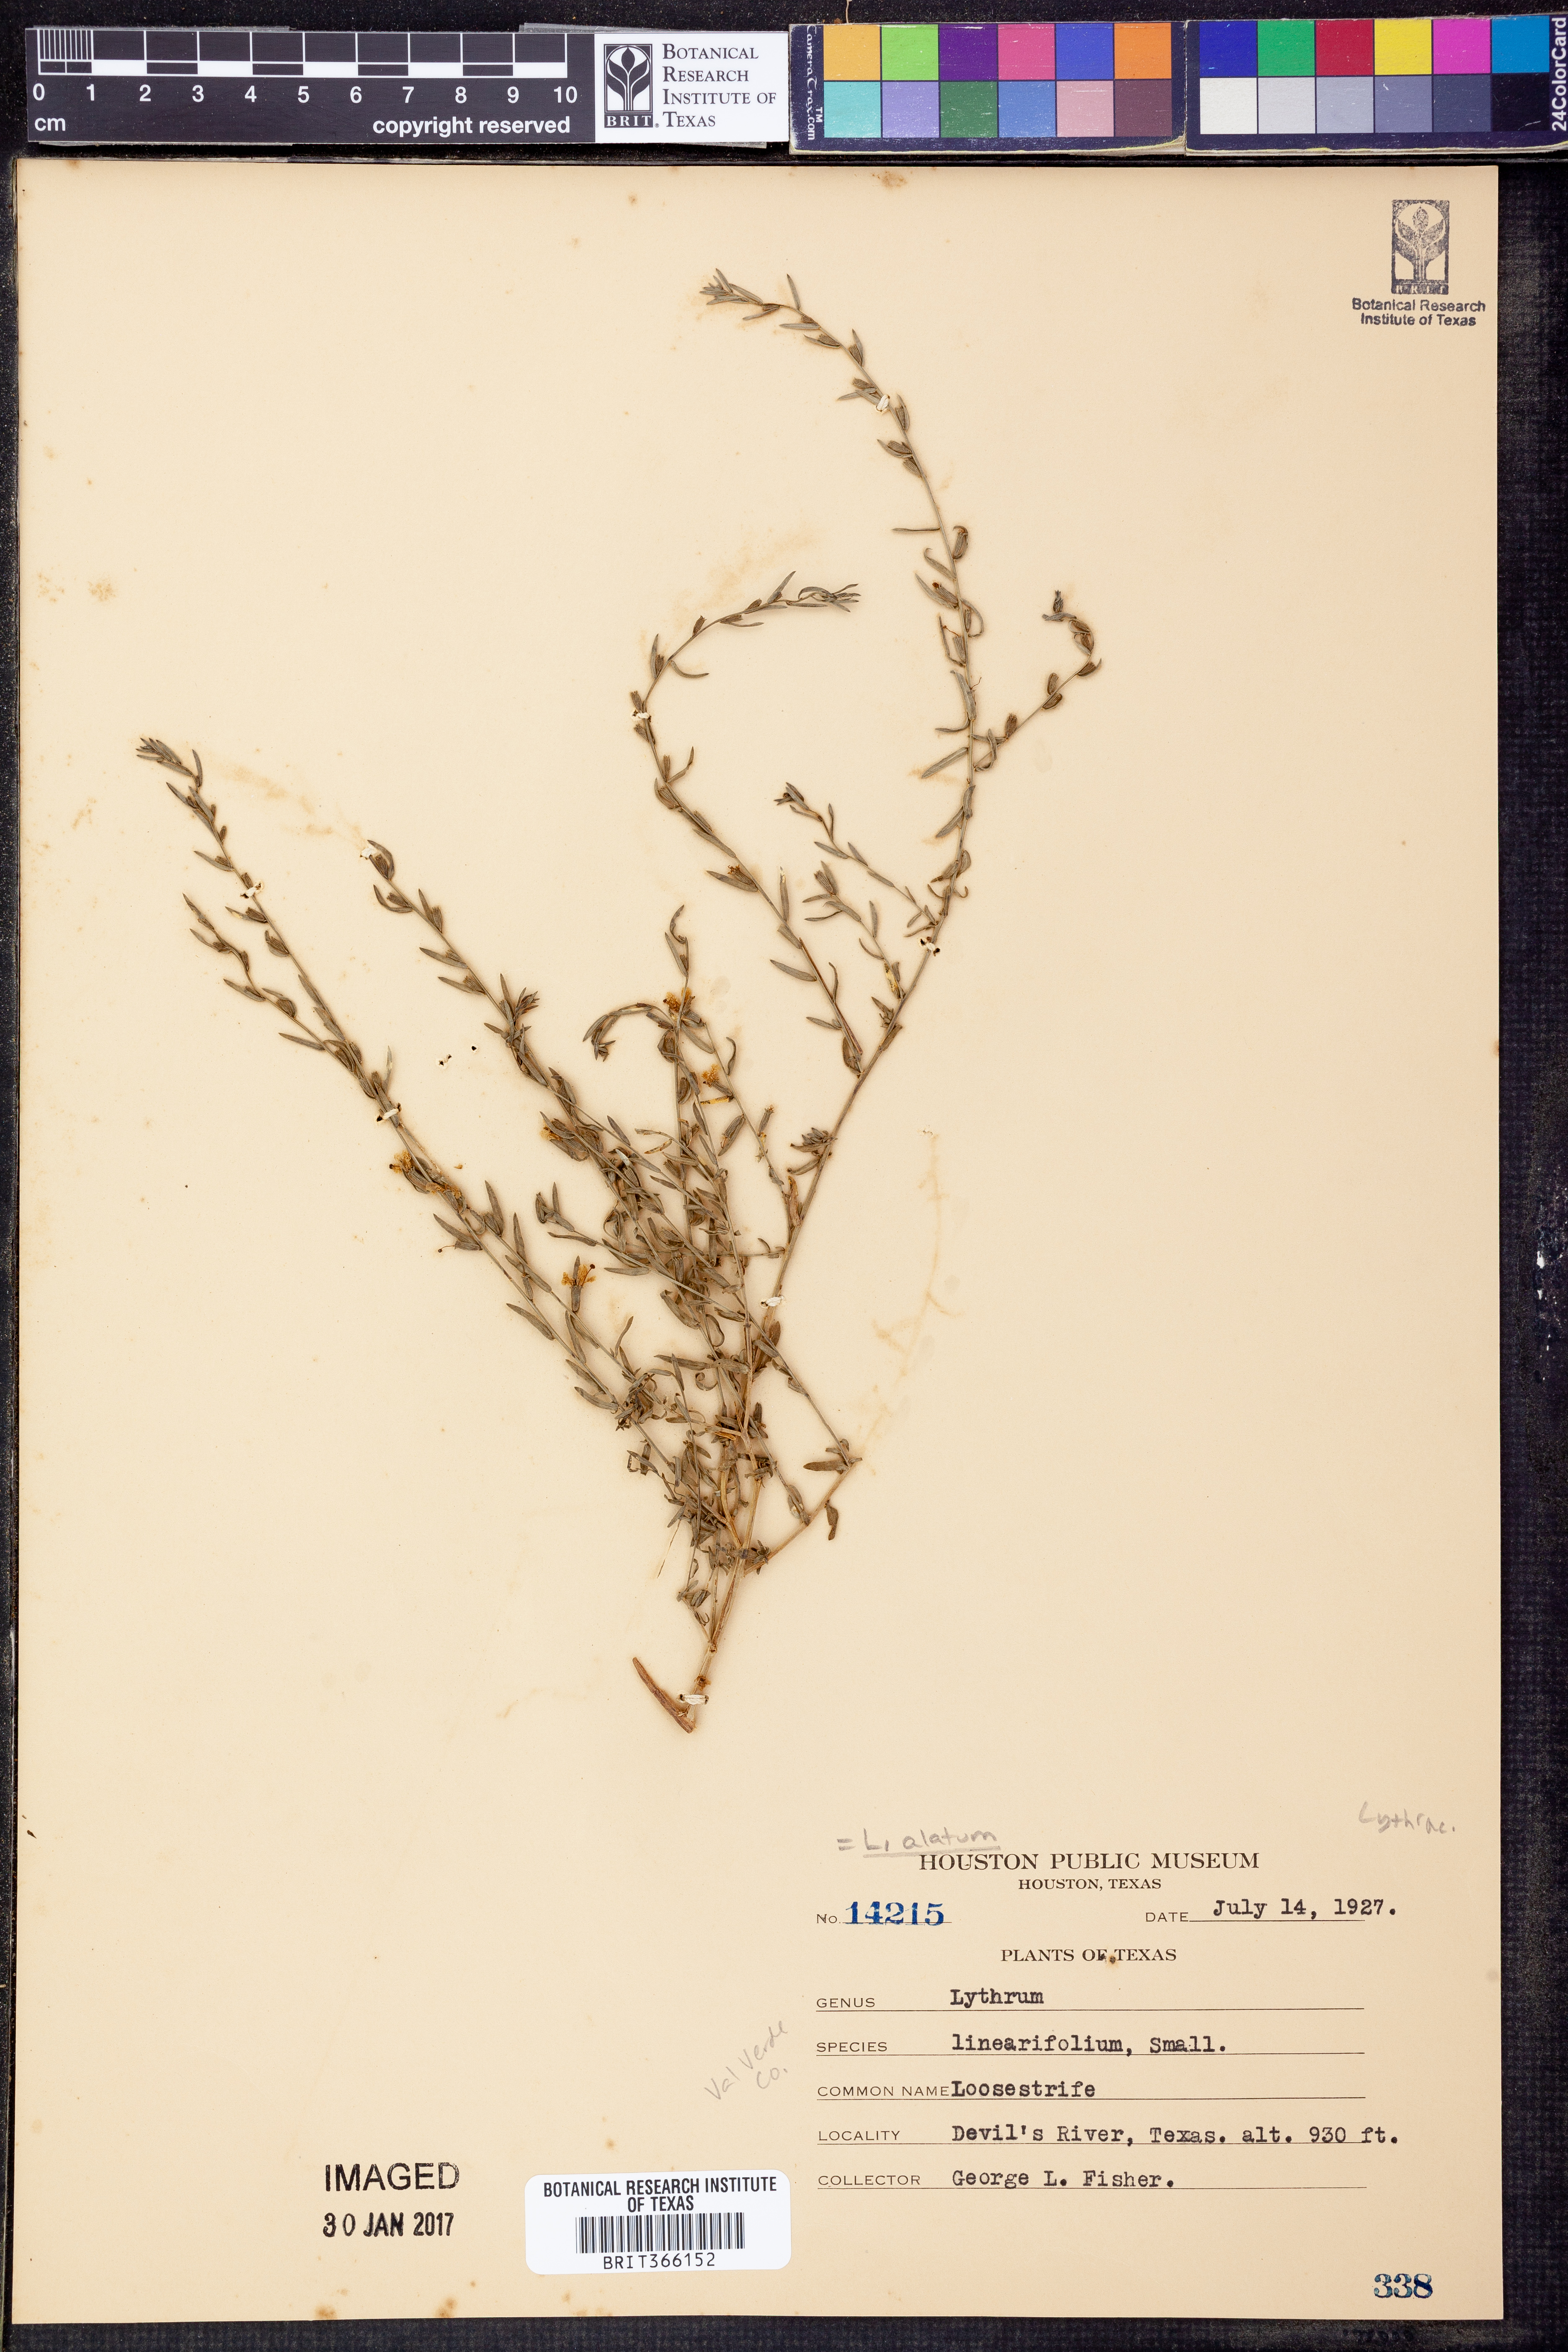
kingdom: Plantae
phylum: Tracheophyta
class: Magnoliopsida
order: Myrtales
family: Lythraceae
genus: Lythrum
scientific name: Lythrum alatum
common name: Winged loosestrife
